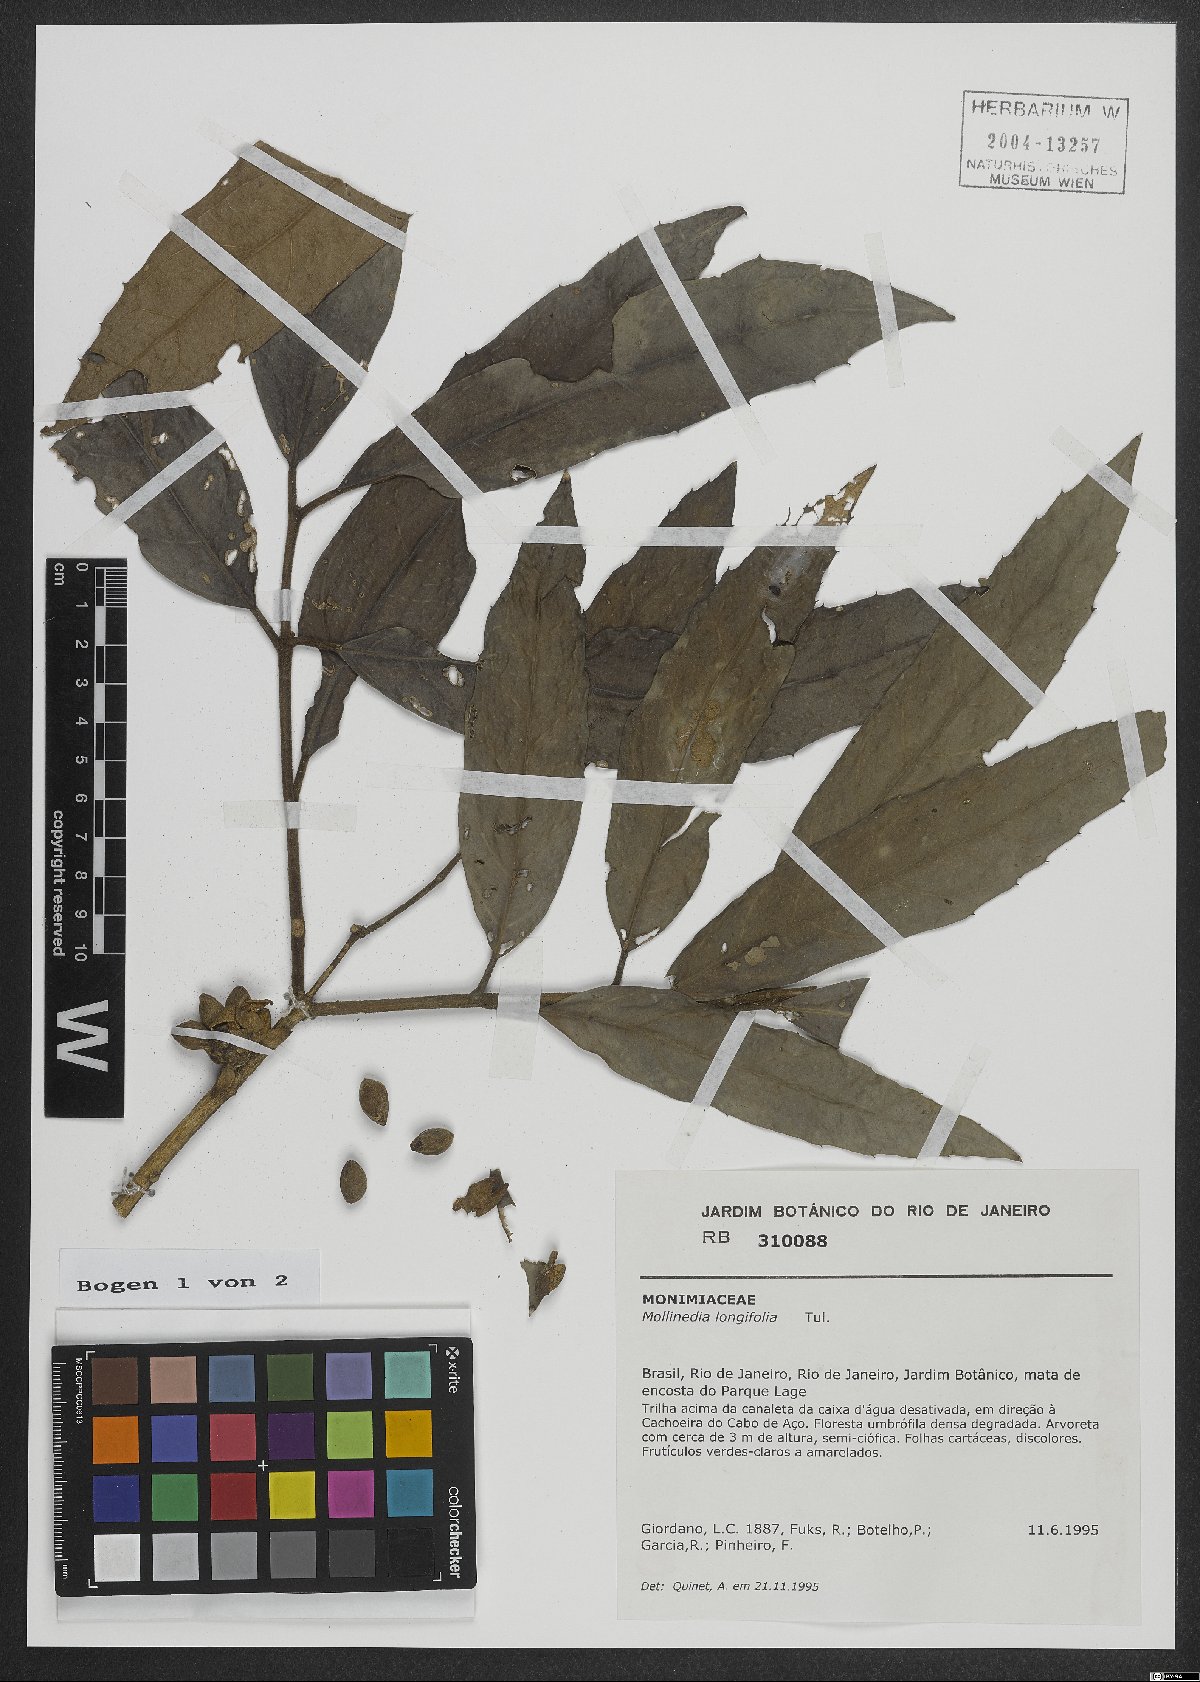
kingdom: Plantae
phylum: Tracheophyta
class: Magnoliopsida
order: Laurales
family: Monimiaceae
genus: Mollinedia
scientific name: Mollinedia longifolia
